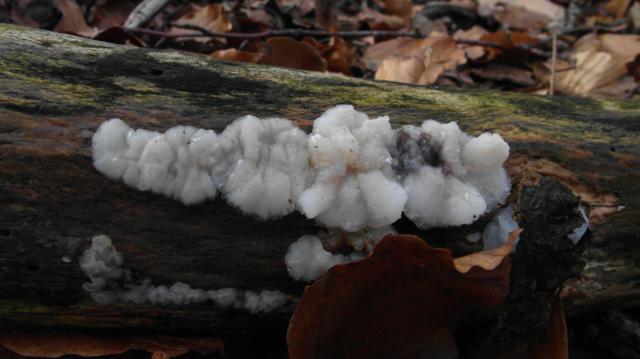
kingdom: Fungi
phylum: Basidiomycota
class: Agaricomycetes
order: Auriculariales
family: Auriculariaceae
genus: Exidia
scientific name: Exidia thuretiana
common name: hvidlig bævretop
